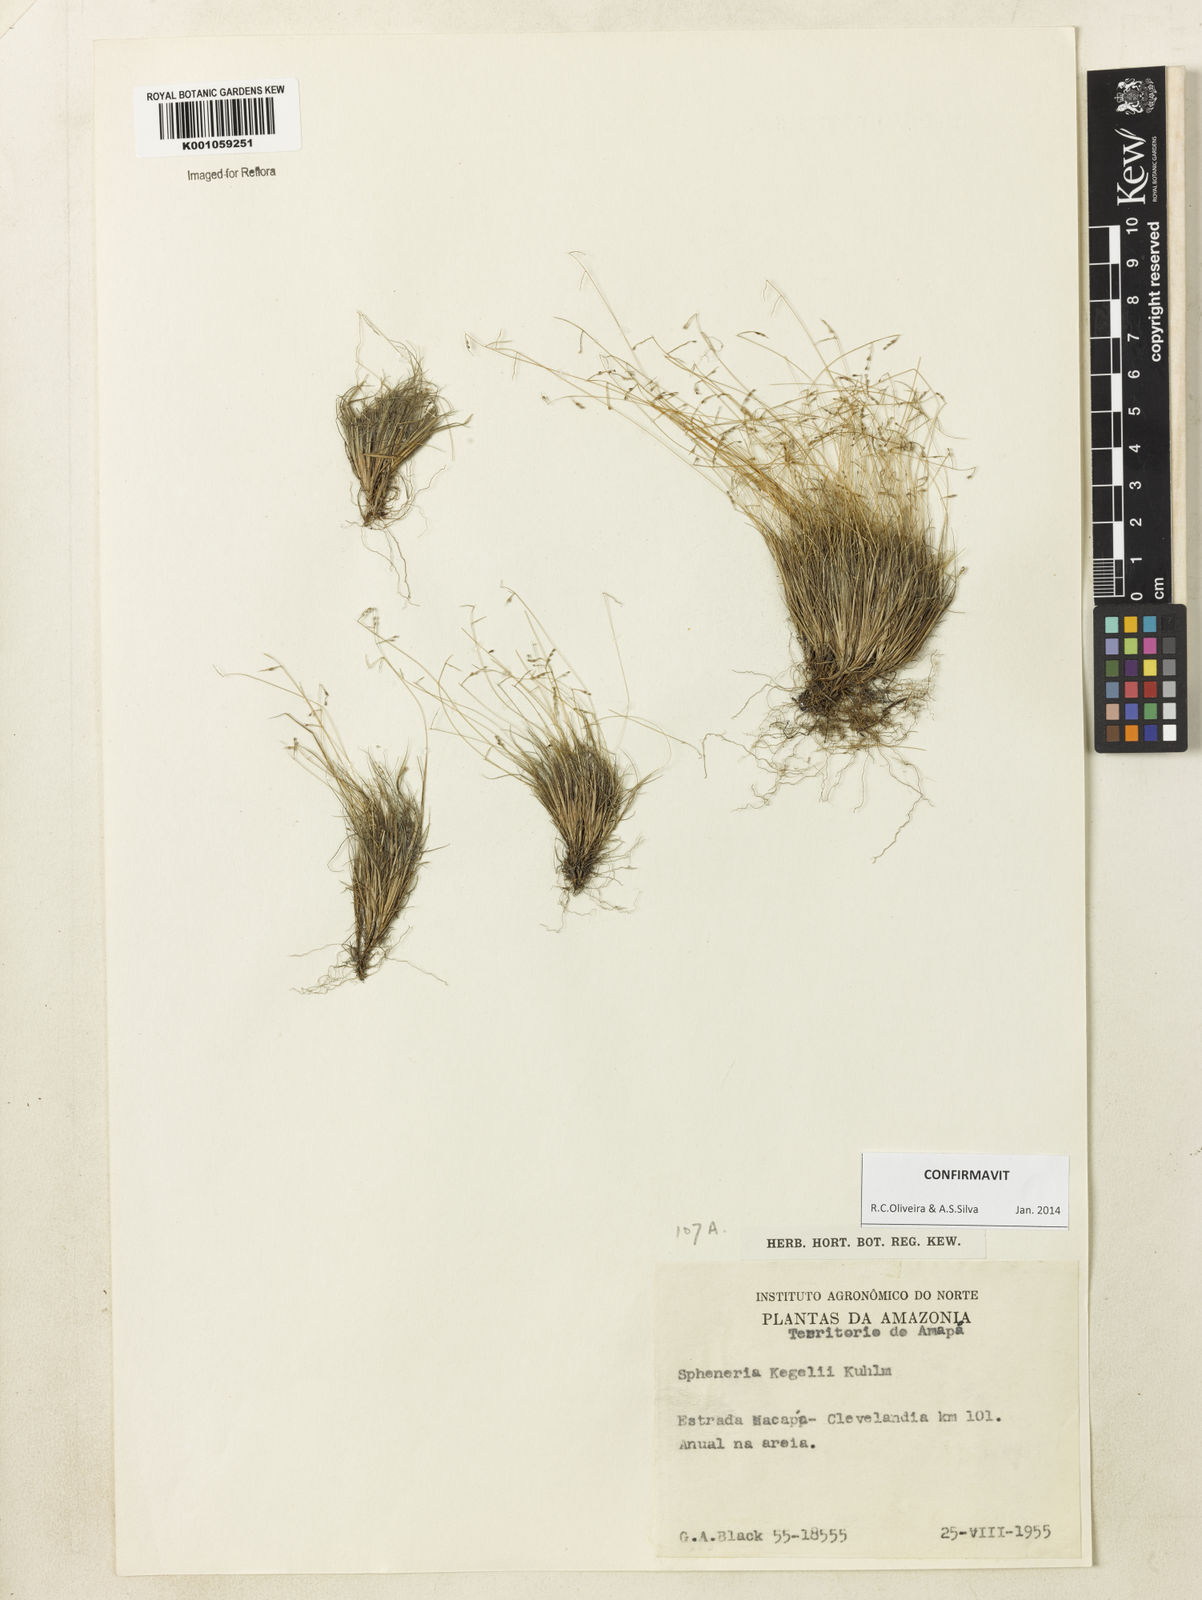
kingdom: Plantae
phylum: Tracheophyta
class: Liliopsida
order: Poales
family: Poaceae
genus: Spheneria
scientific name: Spheneria
